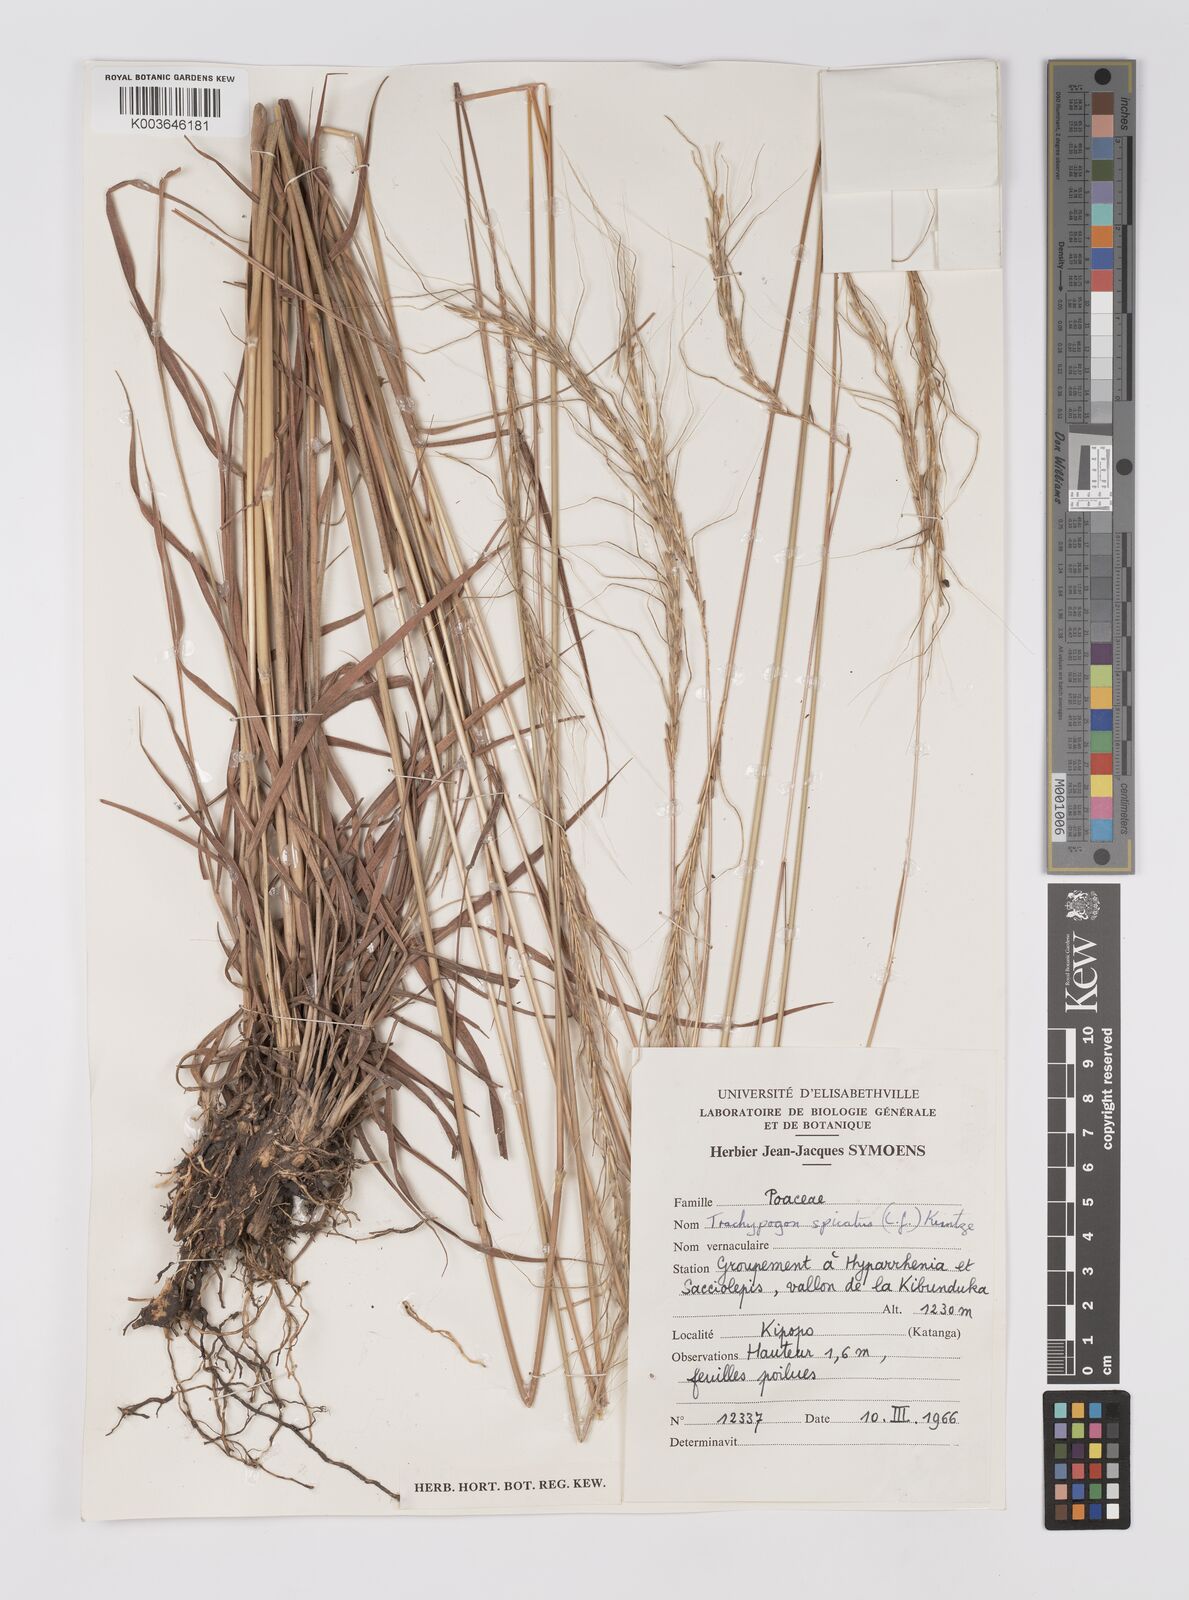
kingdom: Plantae
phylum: Tracheophyta
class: Liliopsida
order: Poales
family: Poaceae
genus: Trachypogon
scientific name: Trachypogon spicatus
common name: Crinkle-awn
